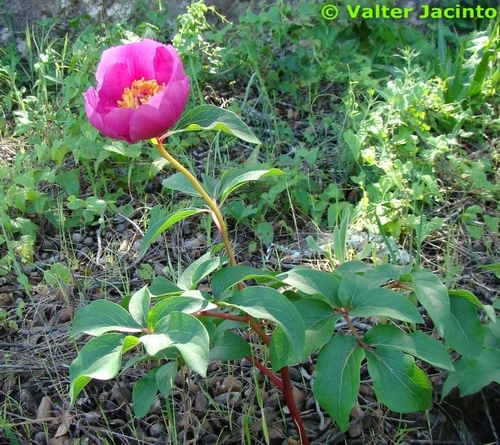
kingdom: Plantae
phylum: Tracheophyta
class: Magnoliopsida
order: Saxifragales
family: Paeoniaceae
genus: Paeonia
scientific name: Paeonia broteroi
